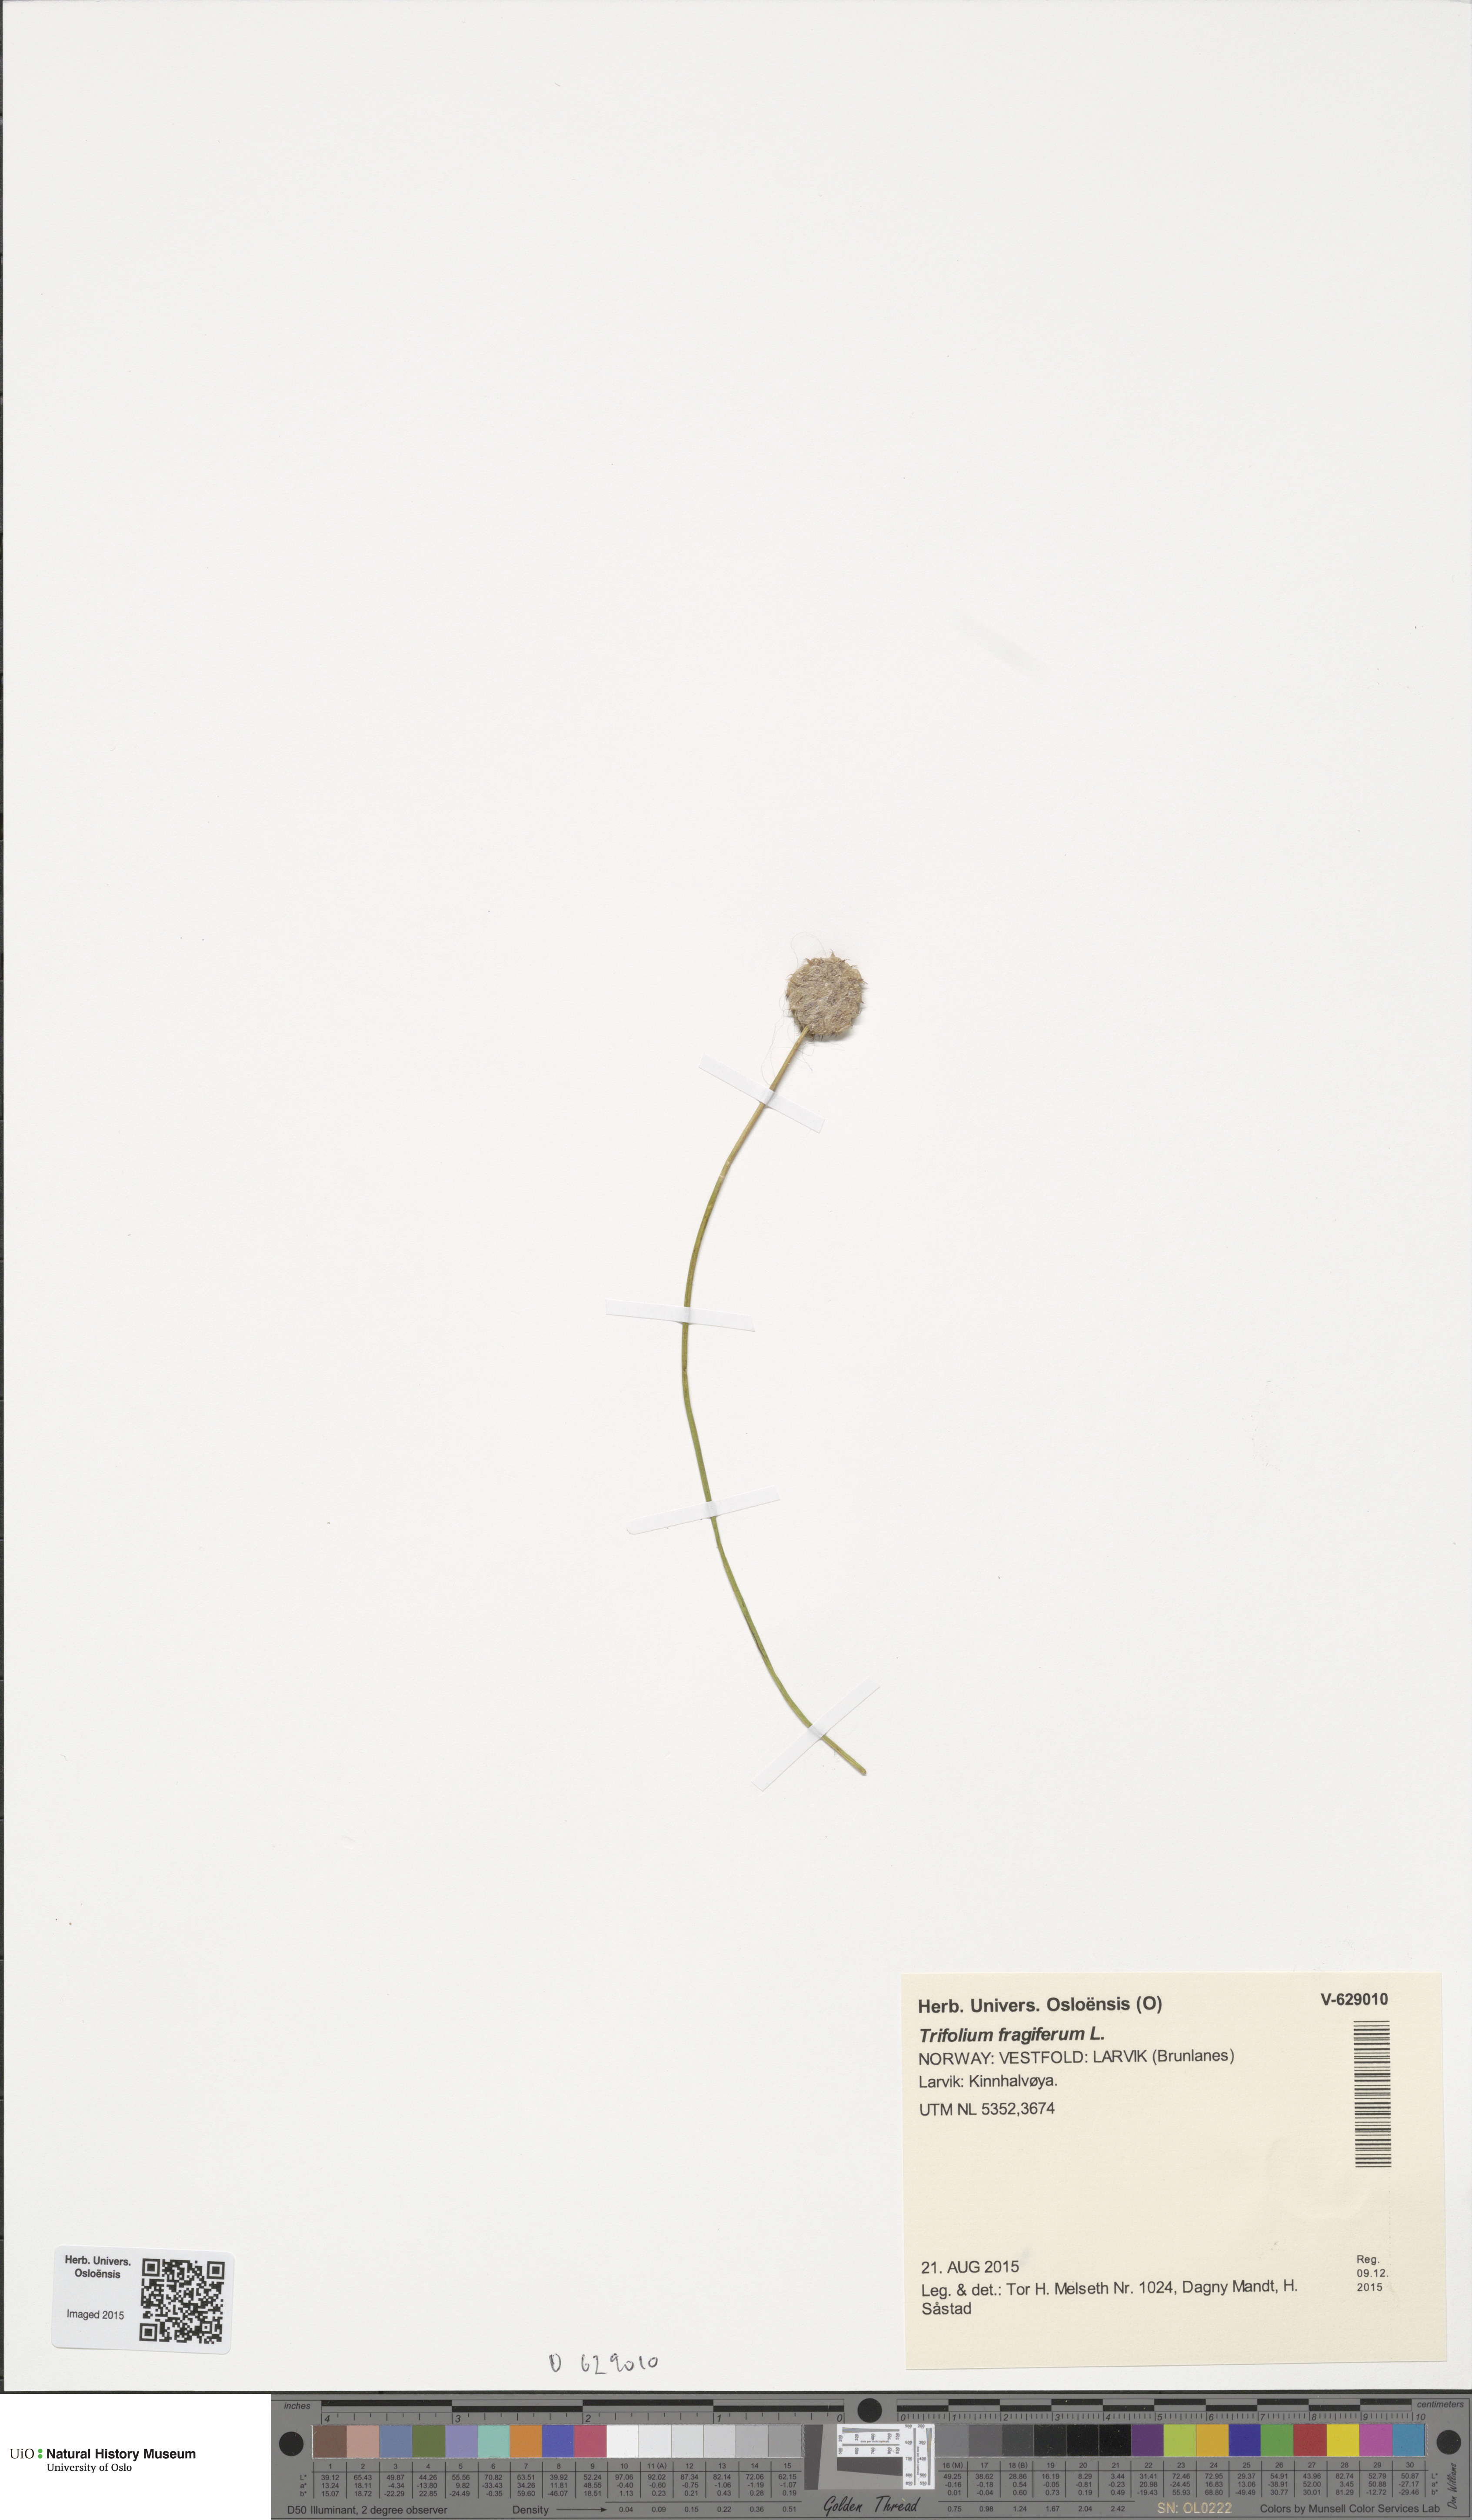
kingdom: Plantae
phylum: Tracheophyta
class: Magnoliopsida
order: Fabales
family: Fabaceae
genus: Trifolium
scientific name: Trifolium fragiferum
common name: Strawberry clover
